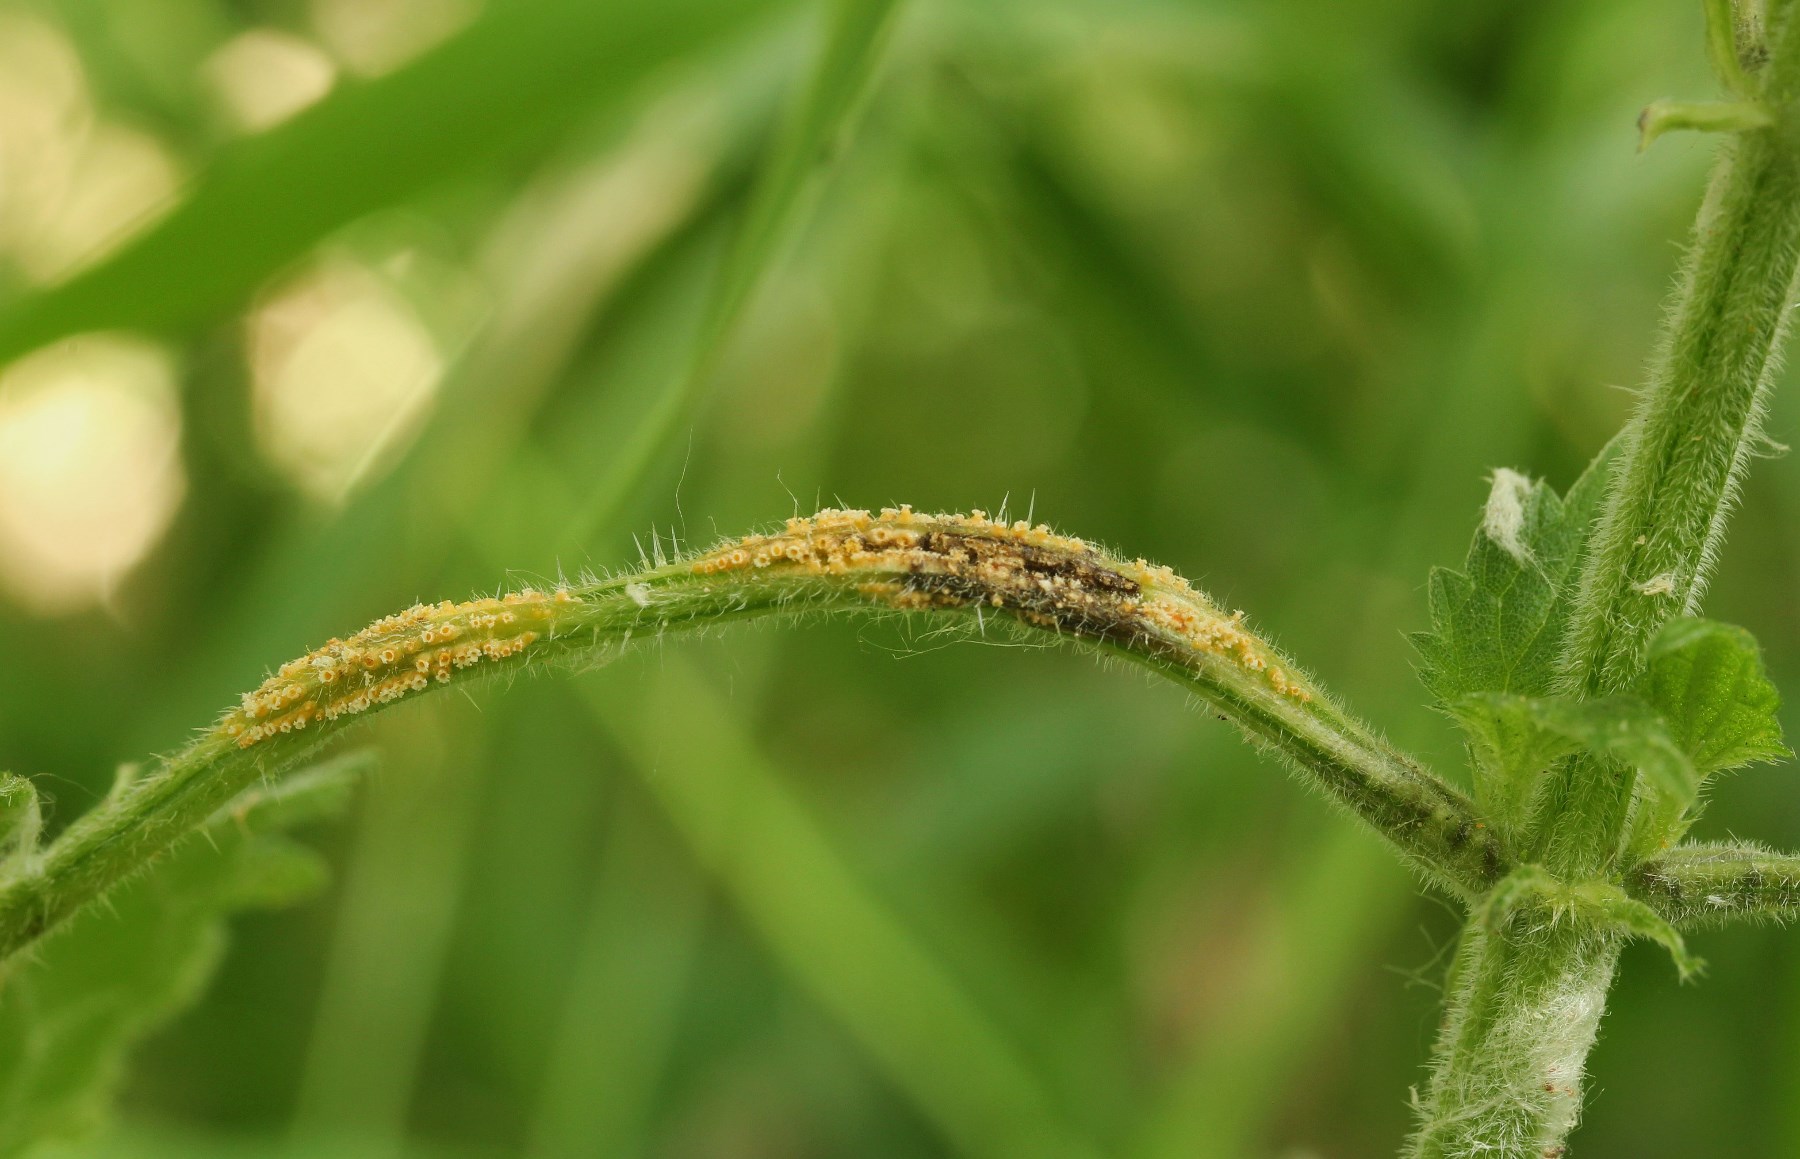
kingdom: Fungi
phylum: Basidiomycota
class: Pucciniomycetes
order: Pucciniales
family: Pucciniaceae
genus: Puccinia
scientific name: Puccinia urticata
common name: nældegalle-tvecellerust
